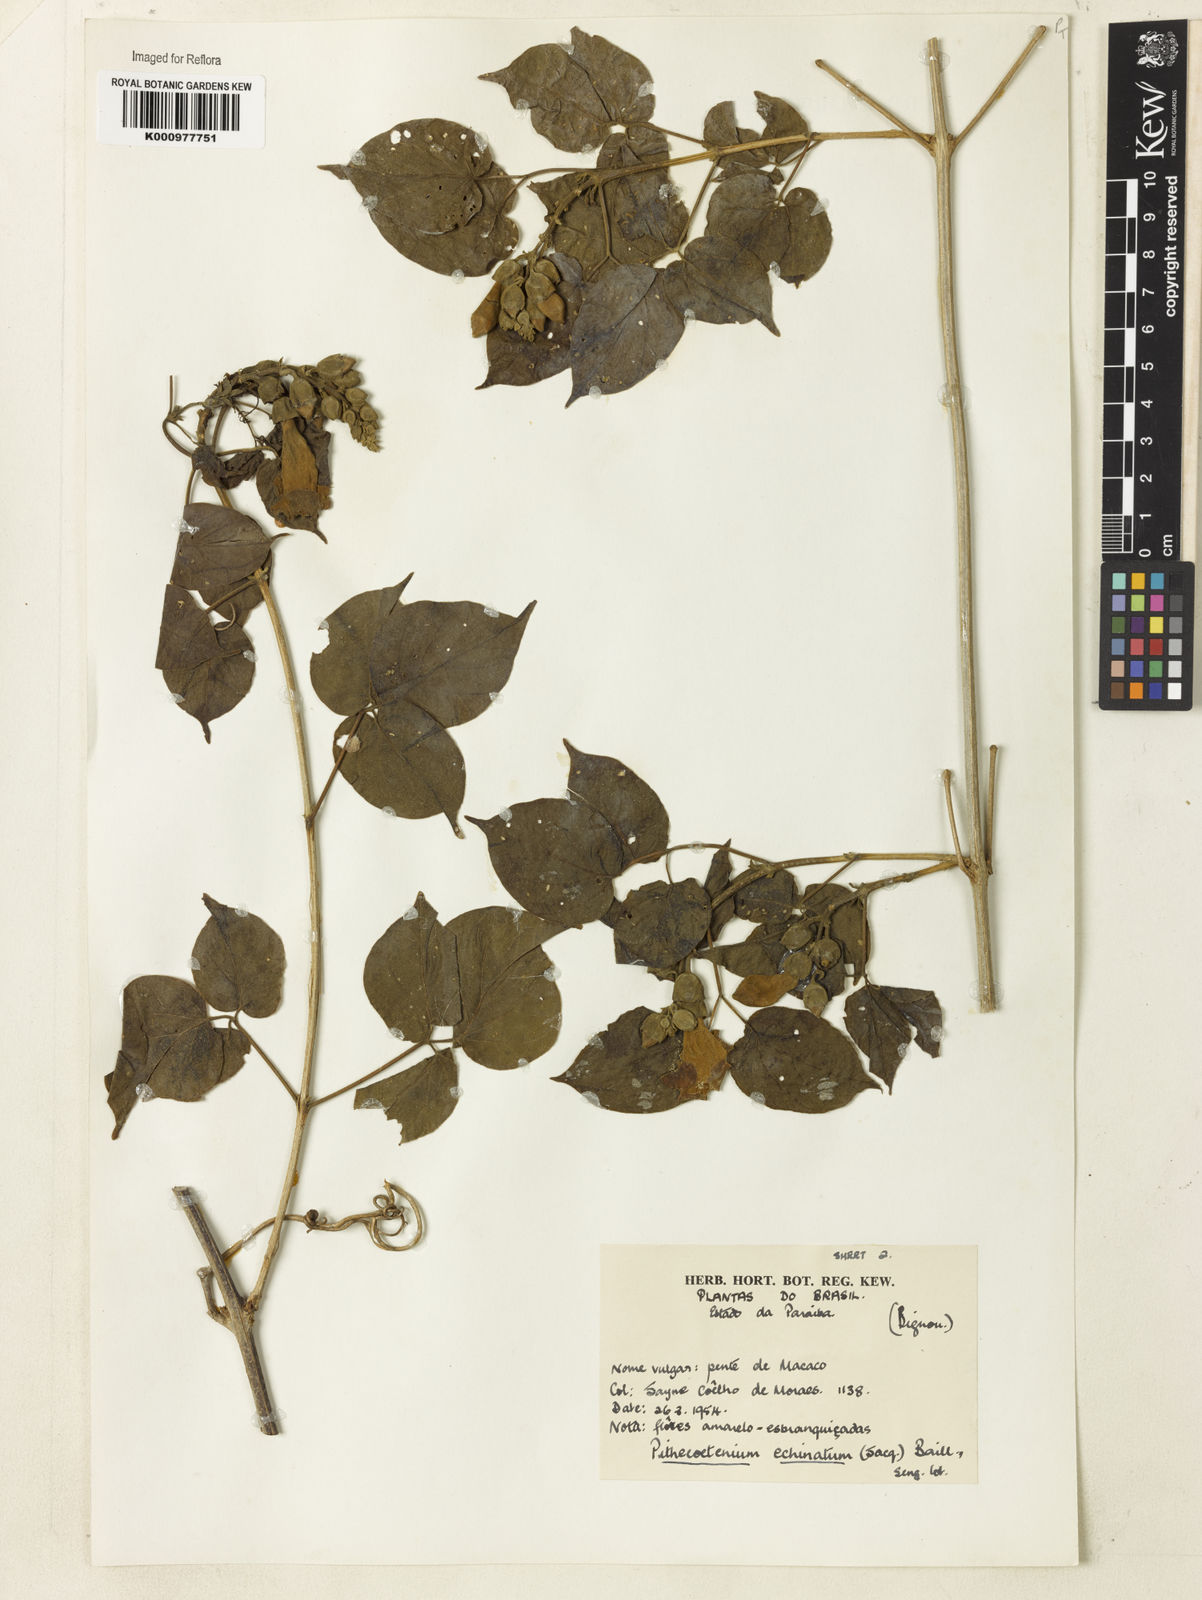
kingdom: Plantae
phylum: Tracheophyta
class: Magnoliopsida
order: Lamiales
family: Bignoniaceae
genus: Amphilophium
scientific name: Amphilophium crucigerum
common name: Monkey comb
